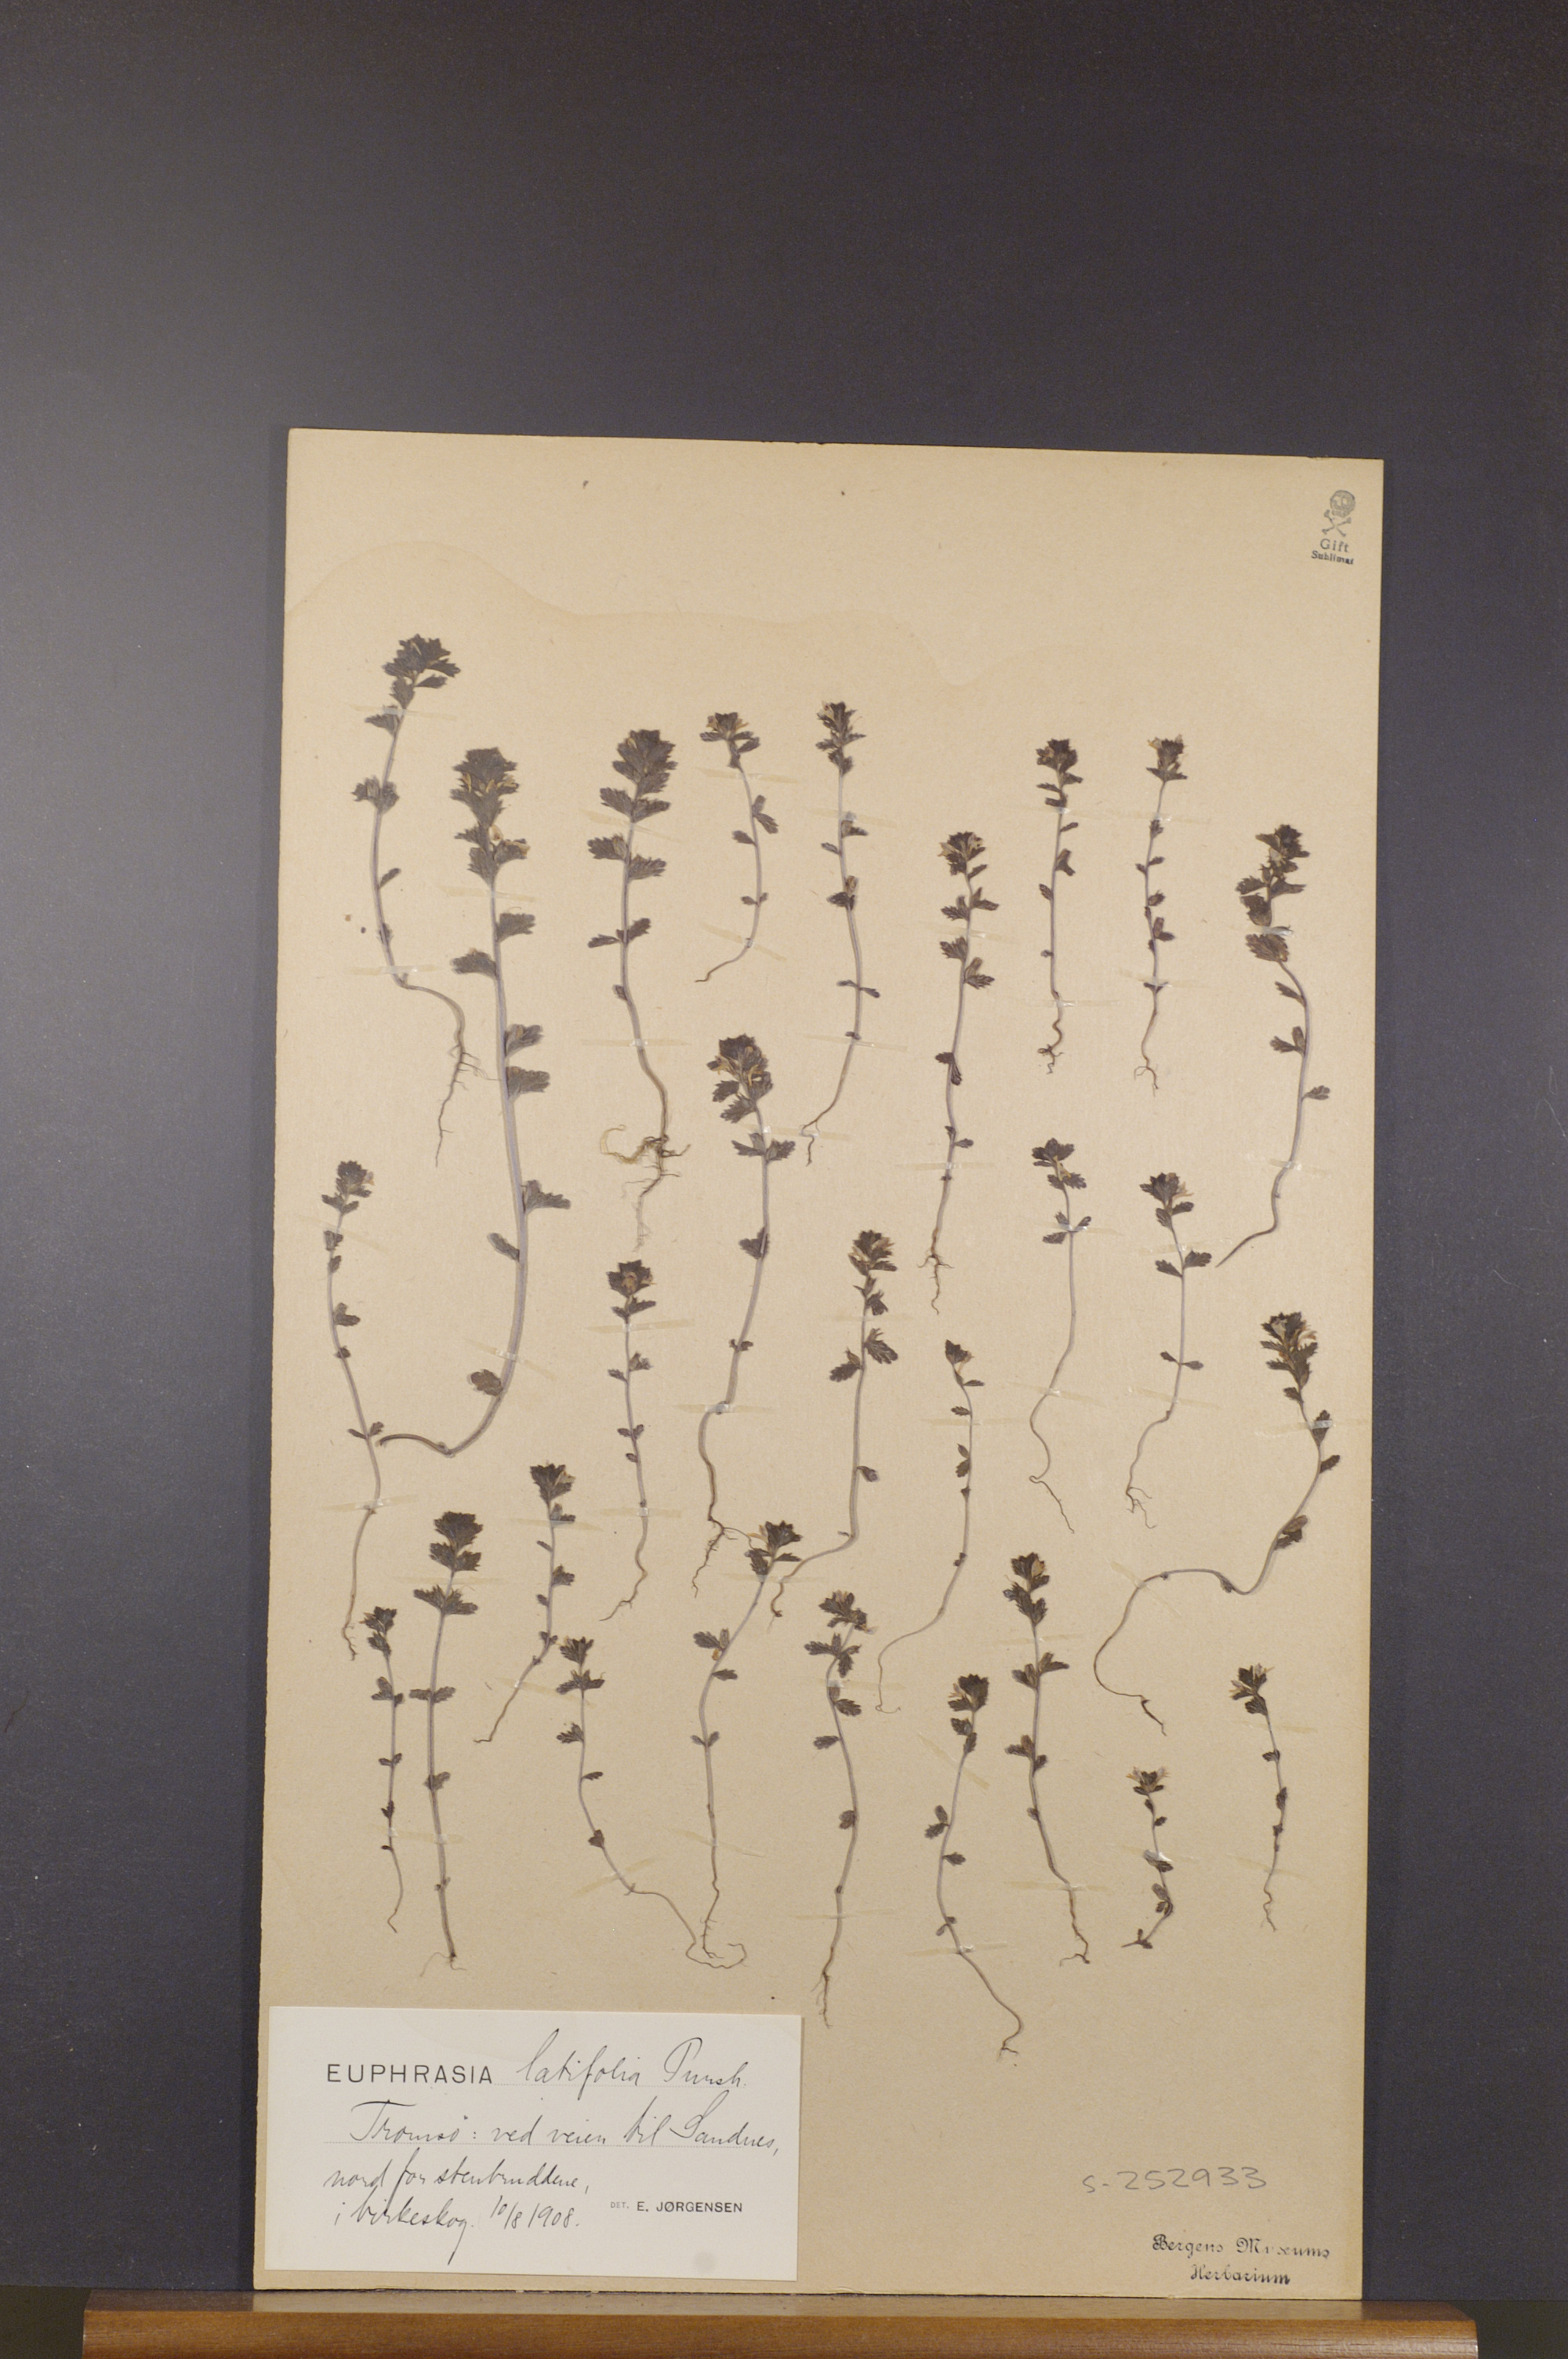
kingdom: Plantae
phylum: Tracheophyta
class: Magnoliopsida
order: Lamiales
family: Orobanchaceae
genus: Euphrasia
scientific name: Euphrasia wettsteinii
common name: Wettstein's eyebright
